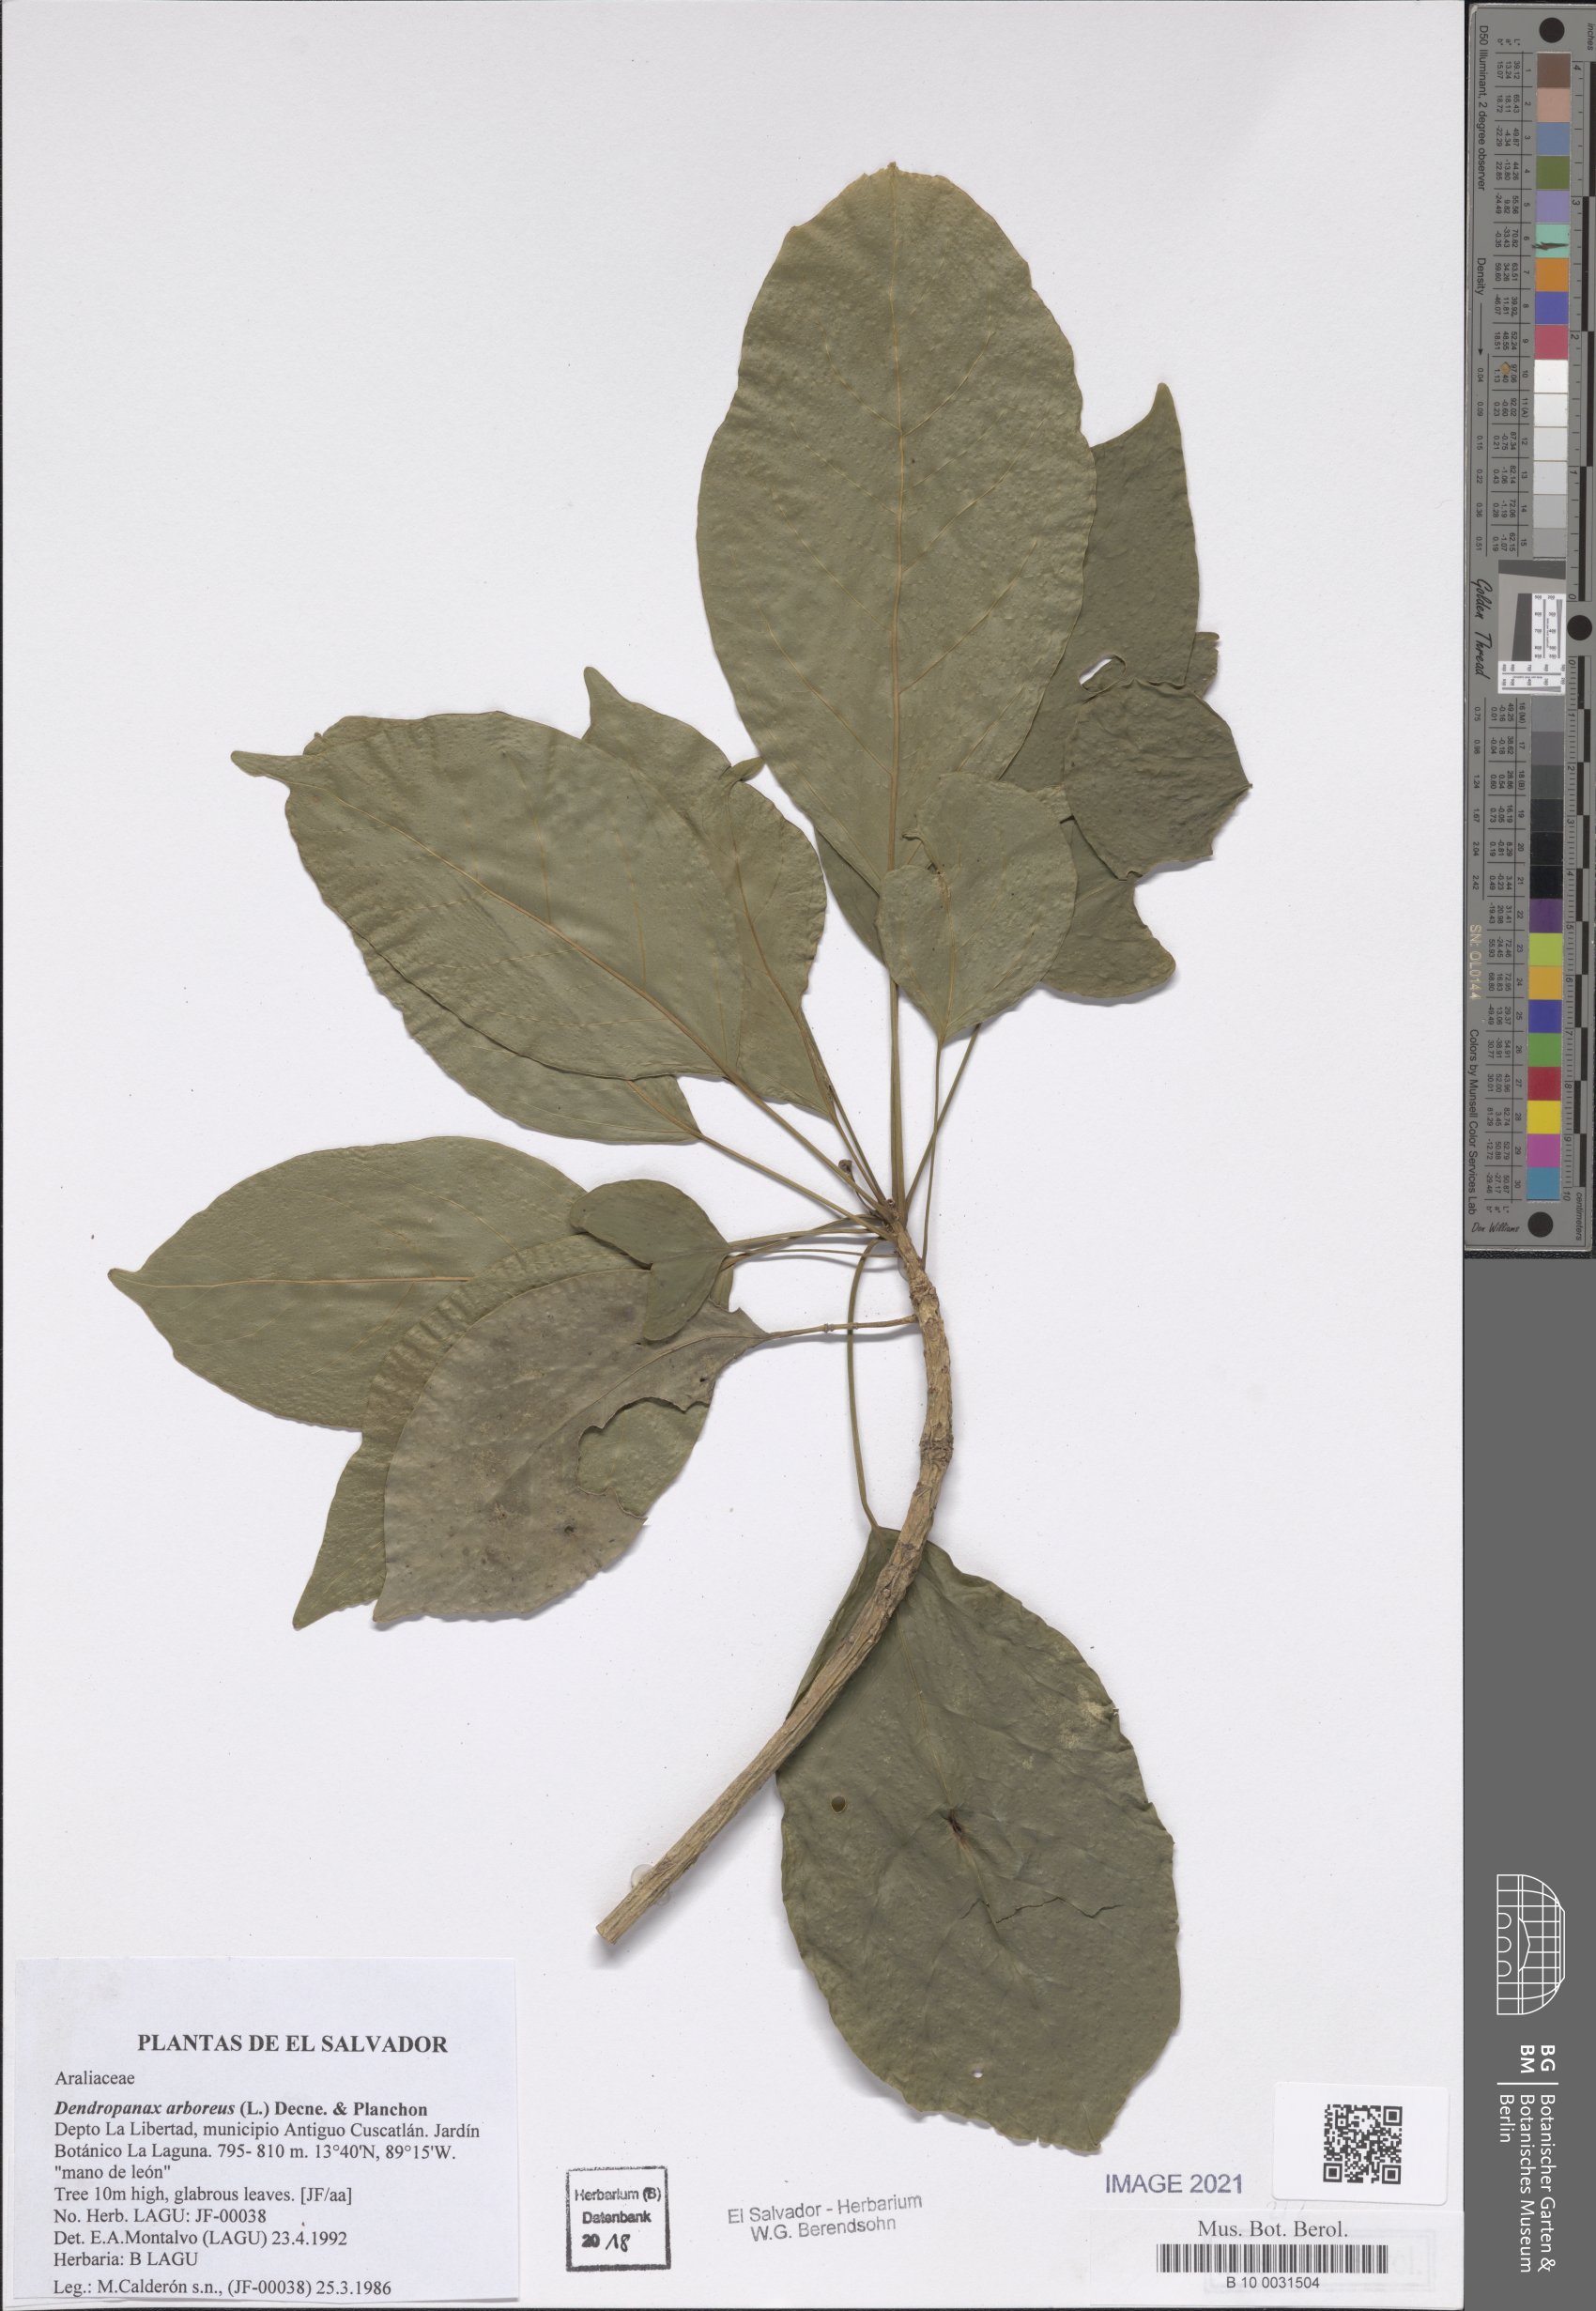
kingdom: Plantae
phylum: Tracheophyta
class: Magnoliopsida
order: Apiales
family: Araliaceae
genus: Dendropanax
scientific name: Dendropanax arboreus
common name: Potato-wood
